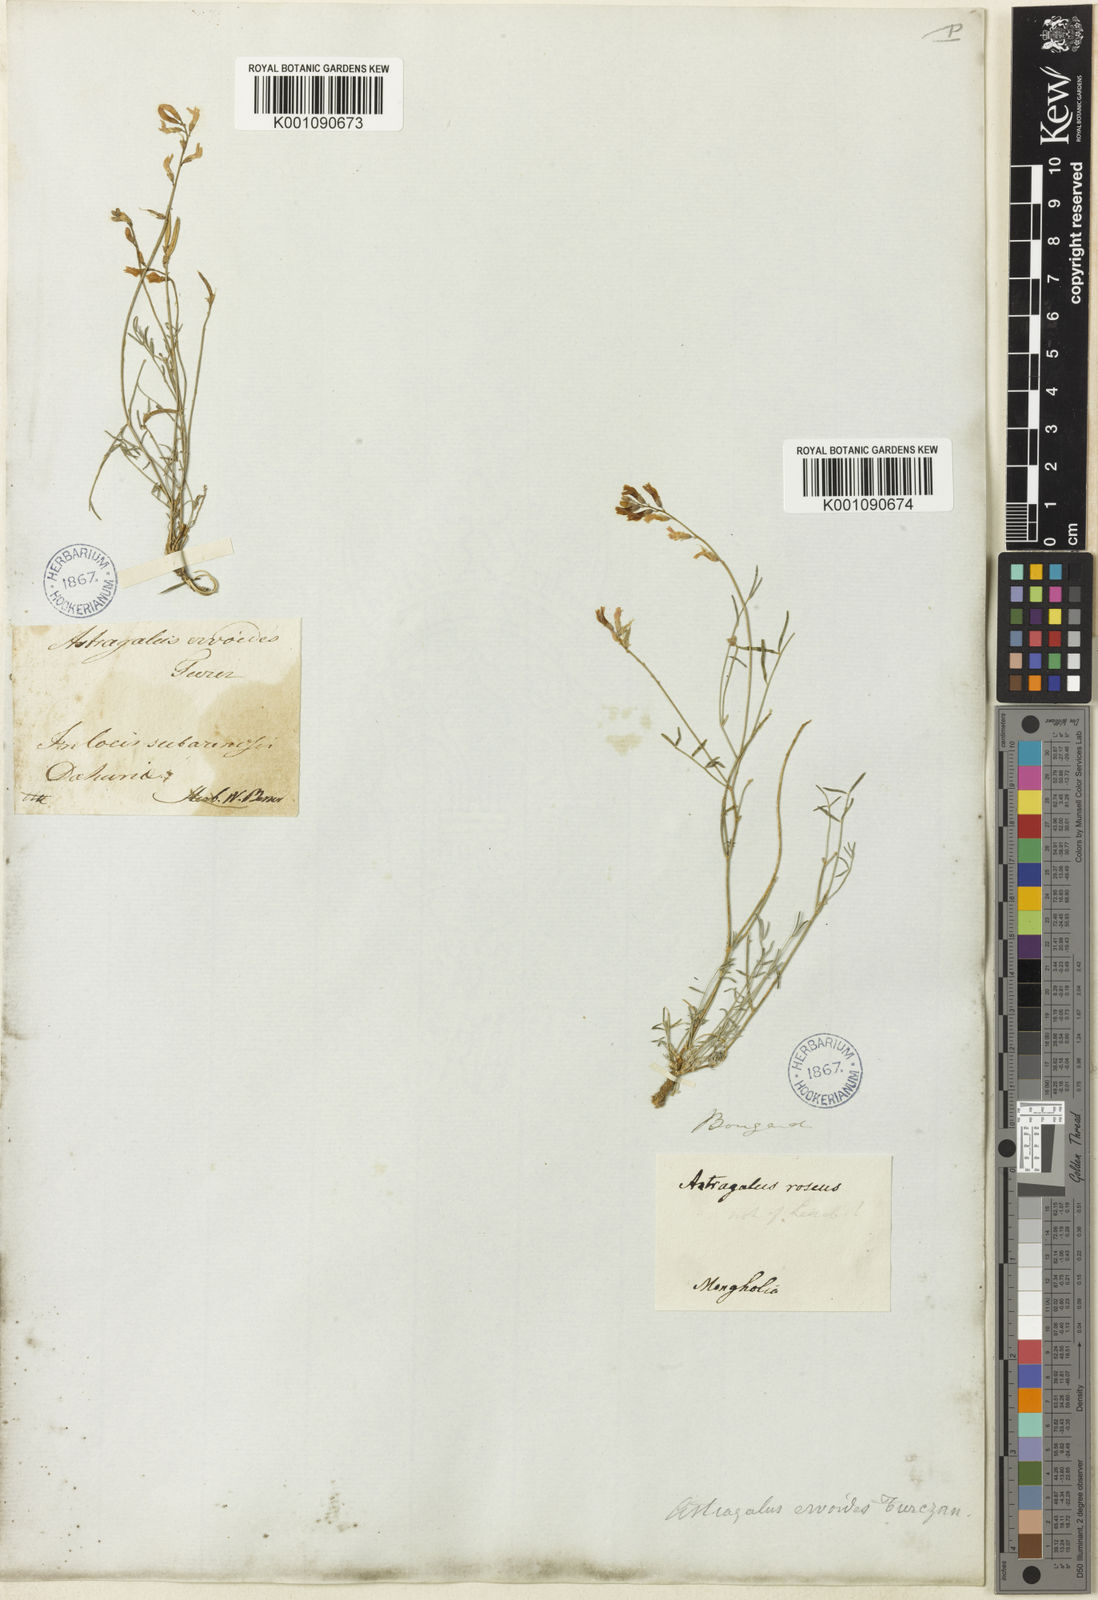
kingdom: Plantae
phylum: Tracheophyta
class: Magnoliopsida
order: Fabales
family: Fabaceae
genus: Astragalus
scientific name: Astragalus
